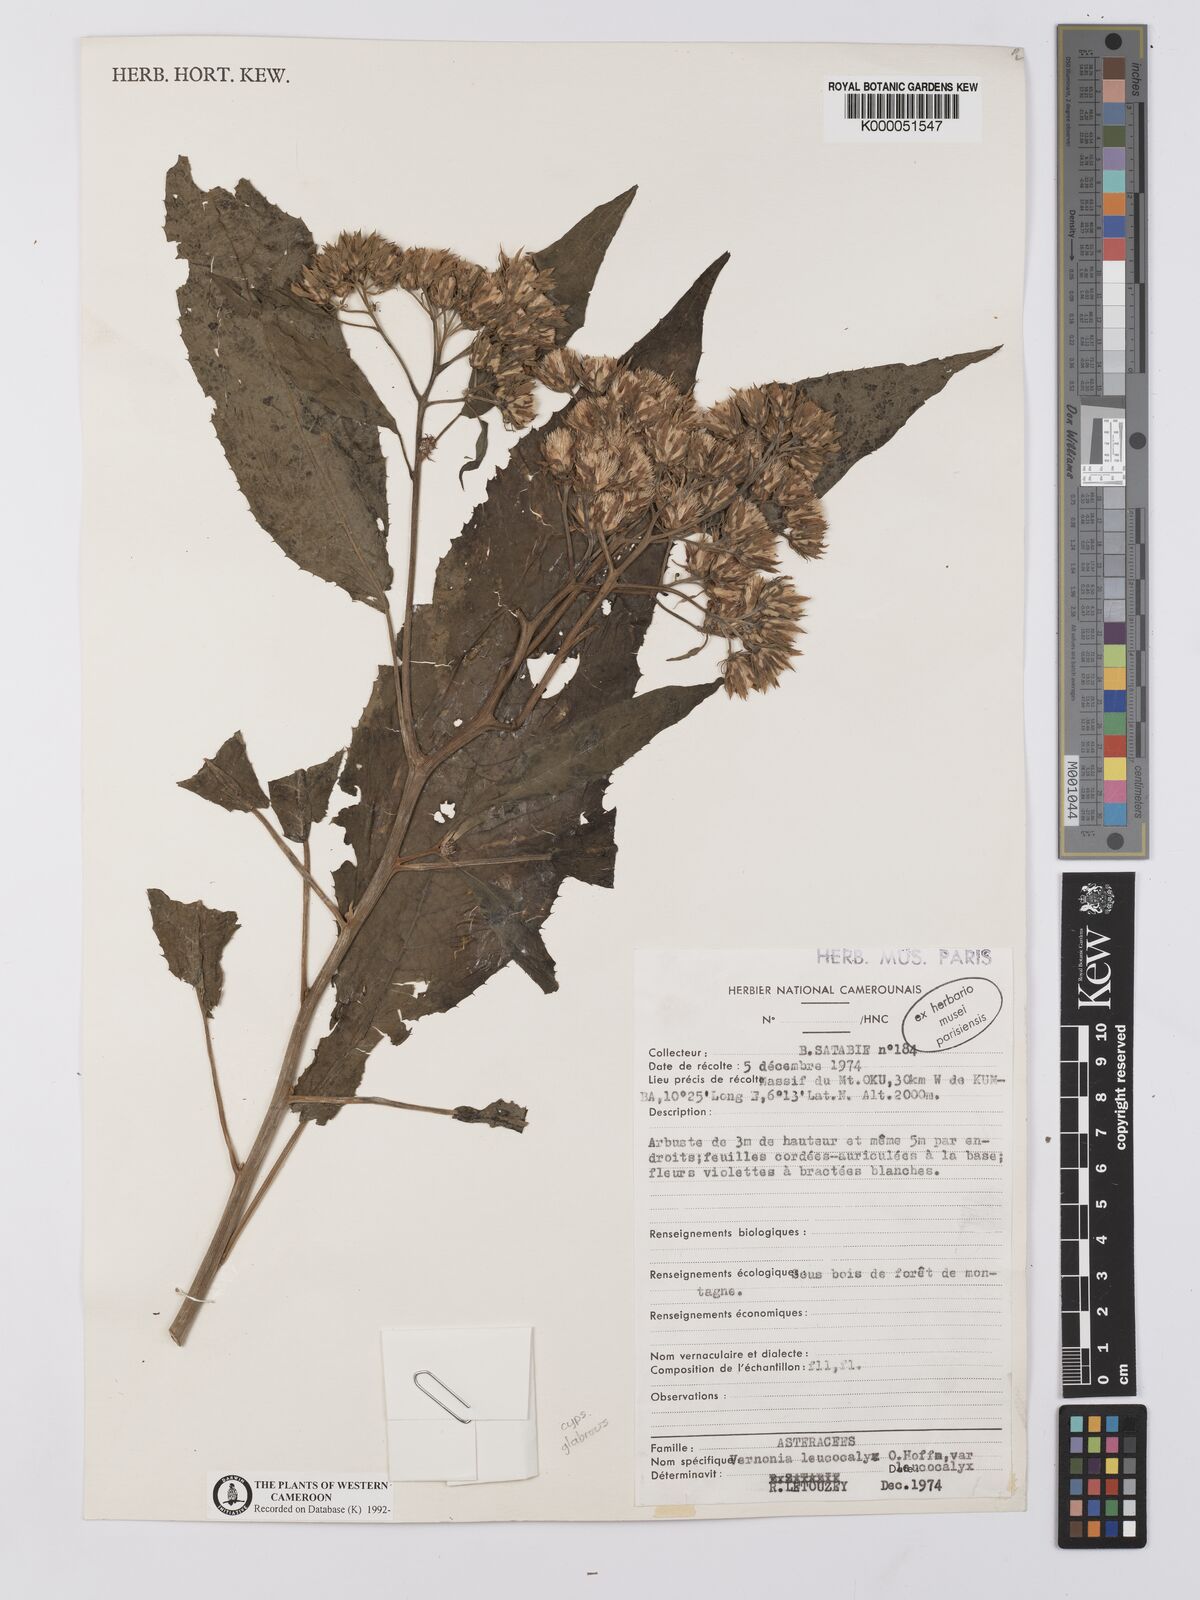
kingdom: Plantae
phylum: Tracheophyta
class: Magnoliopsida
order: Asterales
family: Asteraceae
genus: Baccharoides
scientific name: Baccharoides calvoana
